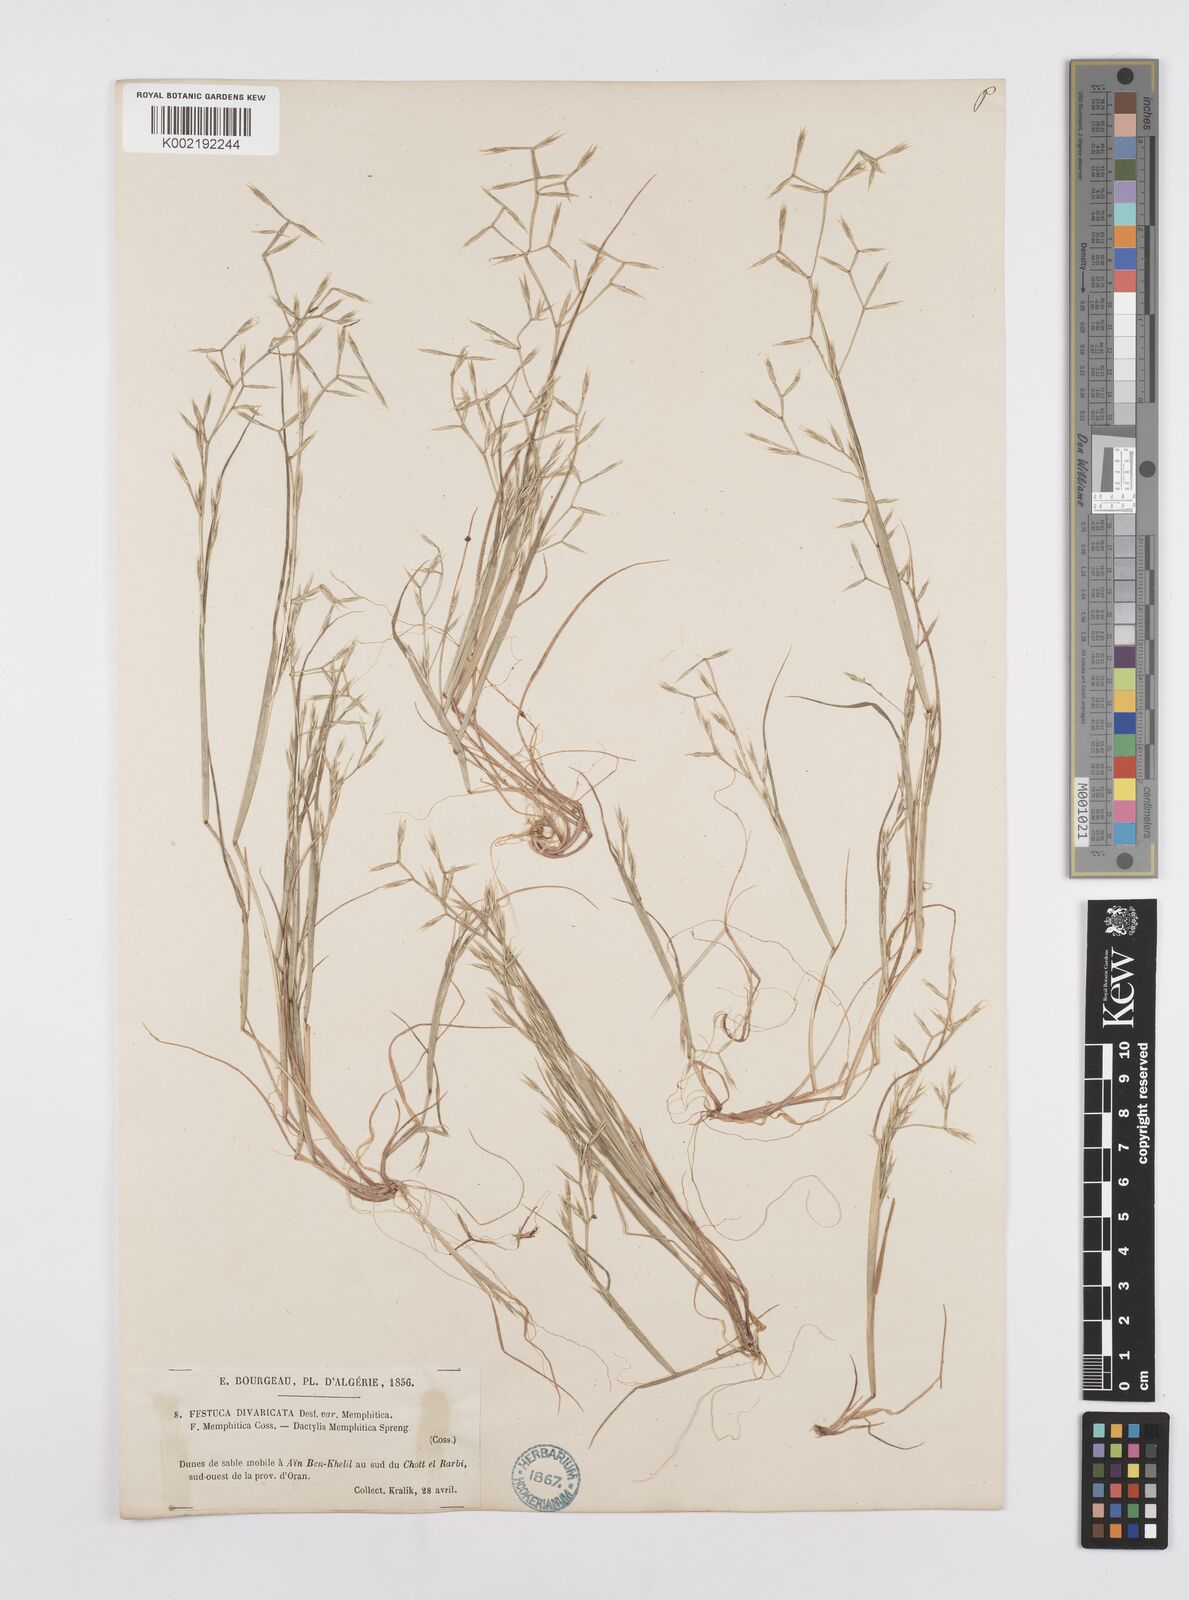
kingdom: Plantae
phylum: Tracheophyta
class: Liliopsida
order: Poales
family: Poaceae
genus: Cutandia
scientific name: Cutandia memphitica
